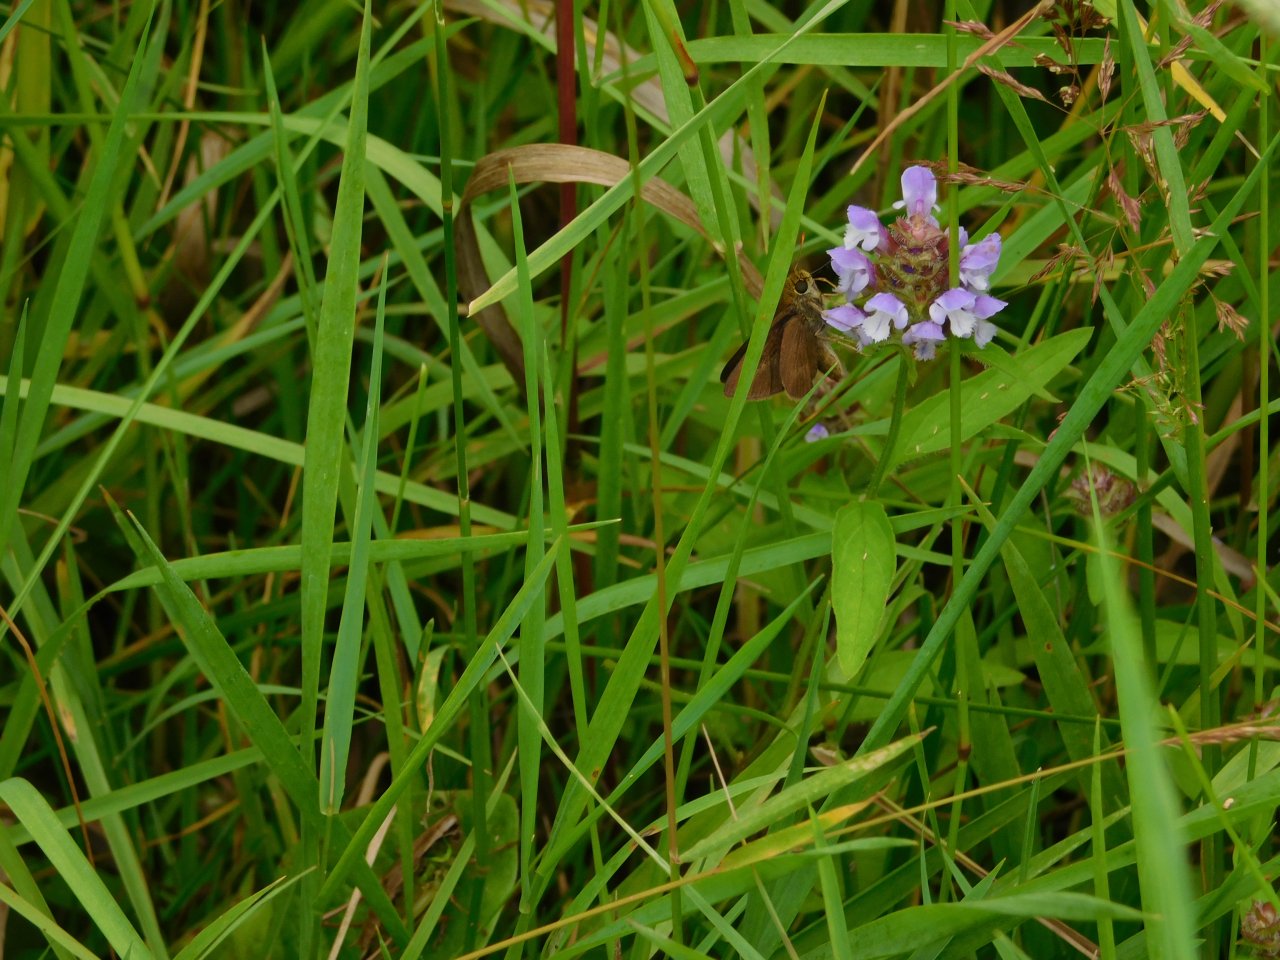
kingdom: Animalia
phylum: Arthropoda
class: Insecta
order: Lepidoptera
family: Hesperiidae
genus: Euphyes
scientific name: Euphyes vestris
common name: Dun Skipper
